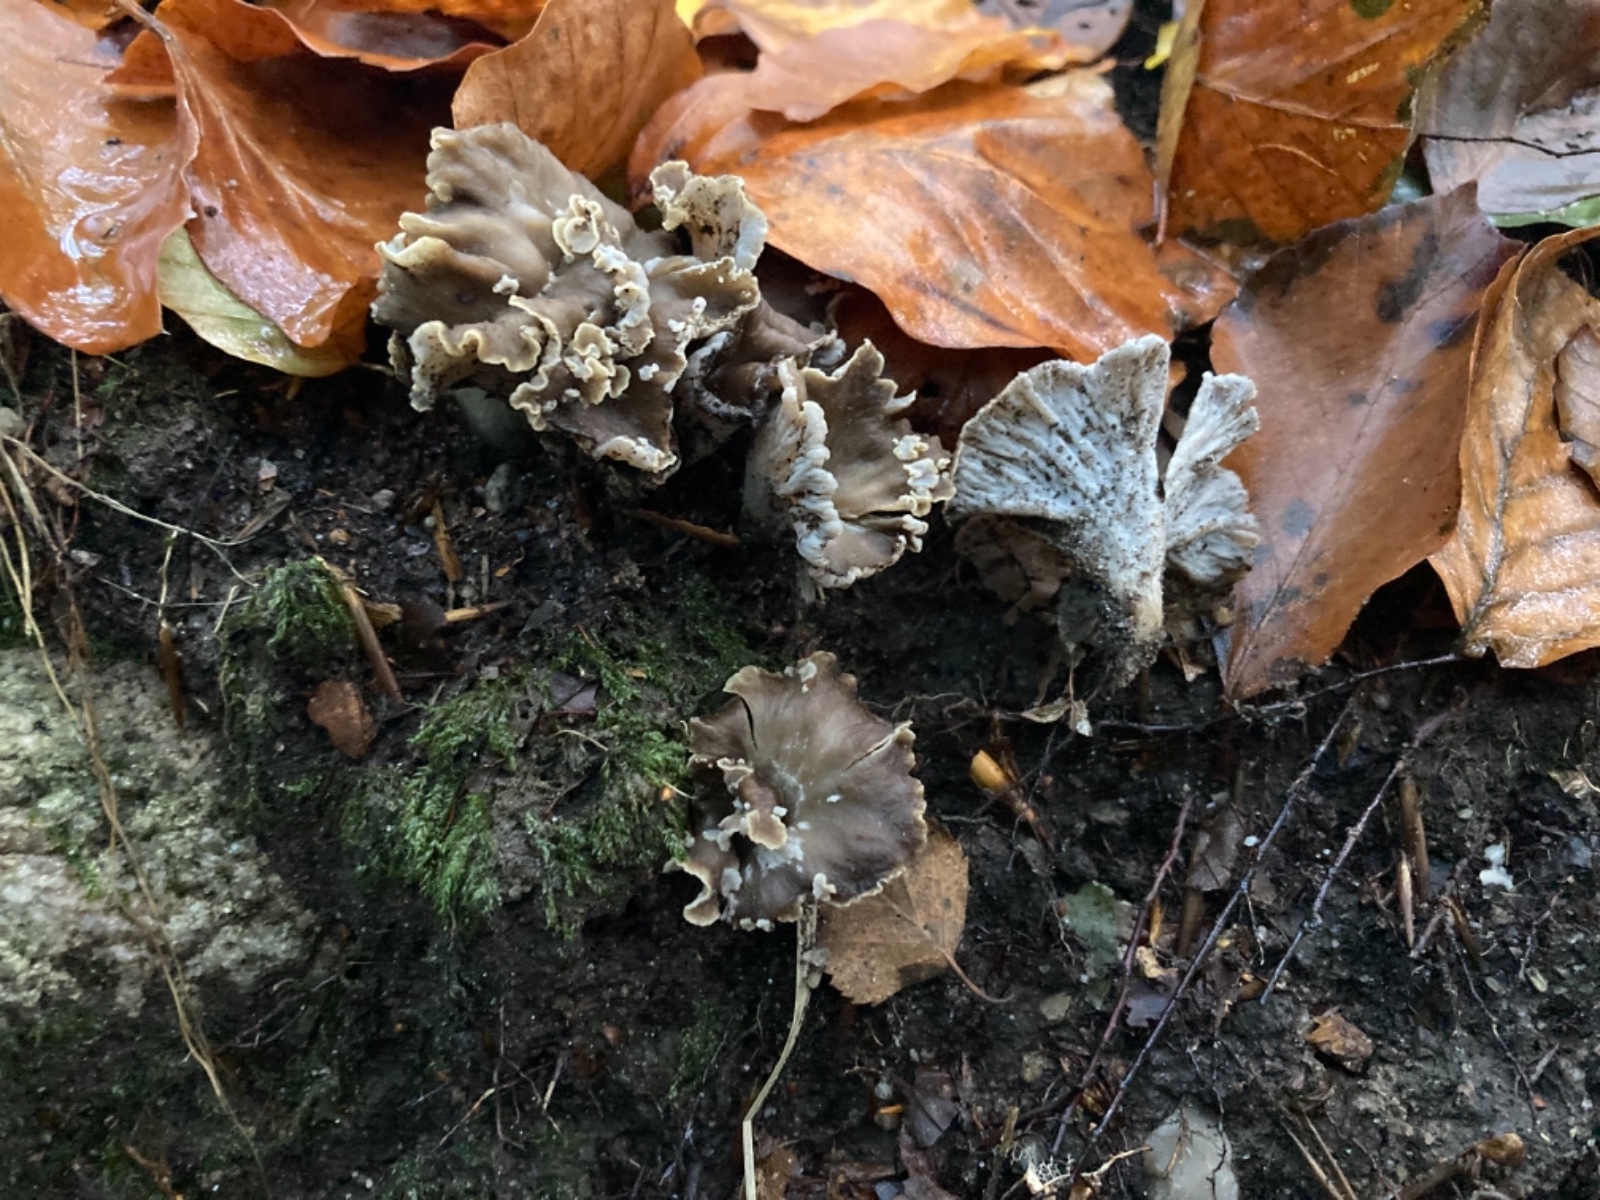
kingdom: Fungi
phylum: Basidiomycota
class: Agaricomycetes
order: Cantharellales
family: Hydnaceae
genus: Craterellus
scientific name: Craterellus undulatus
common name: liden kantarel
